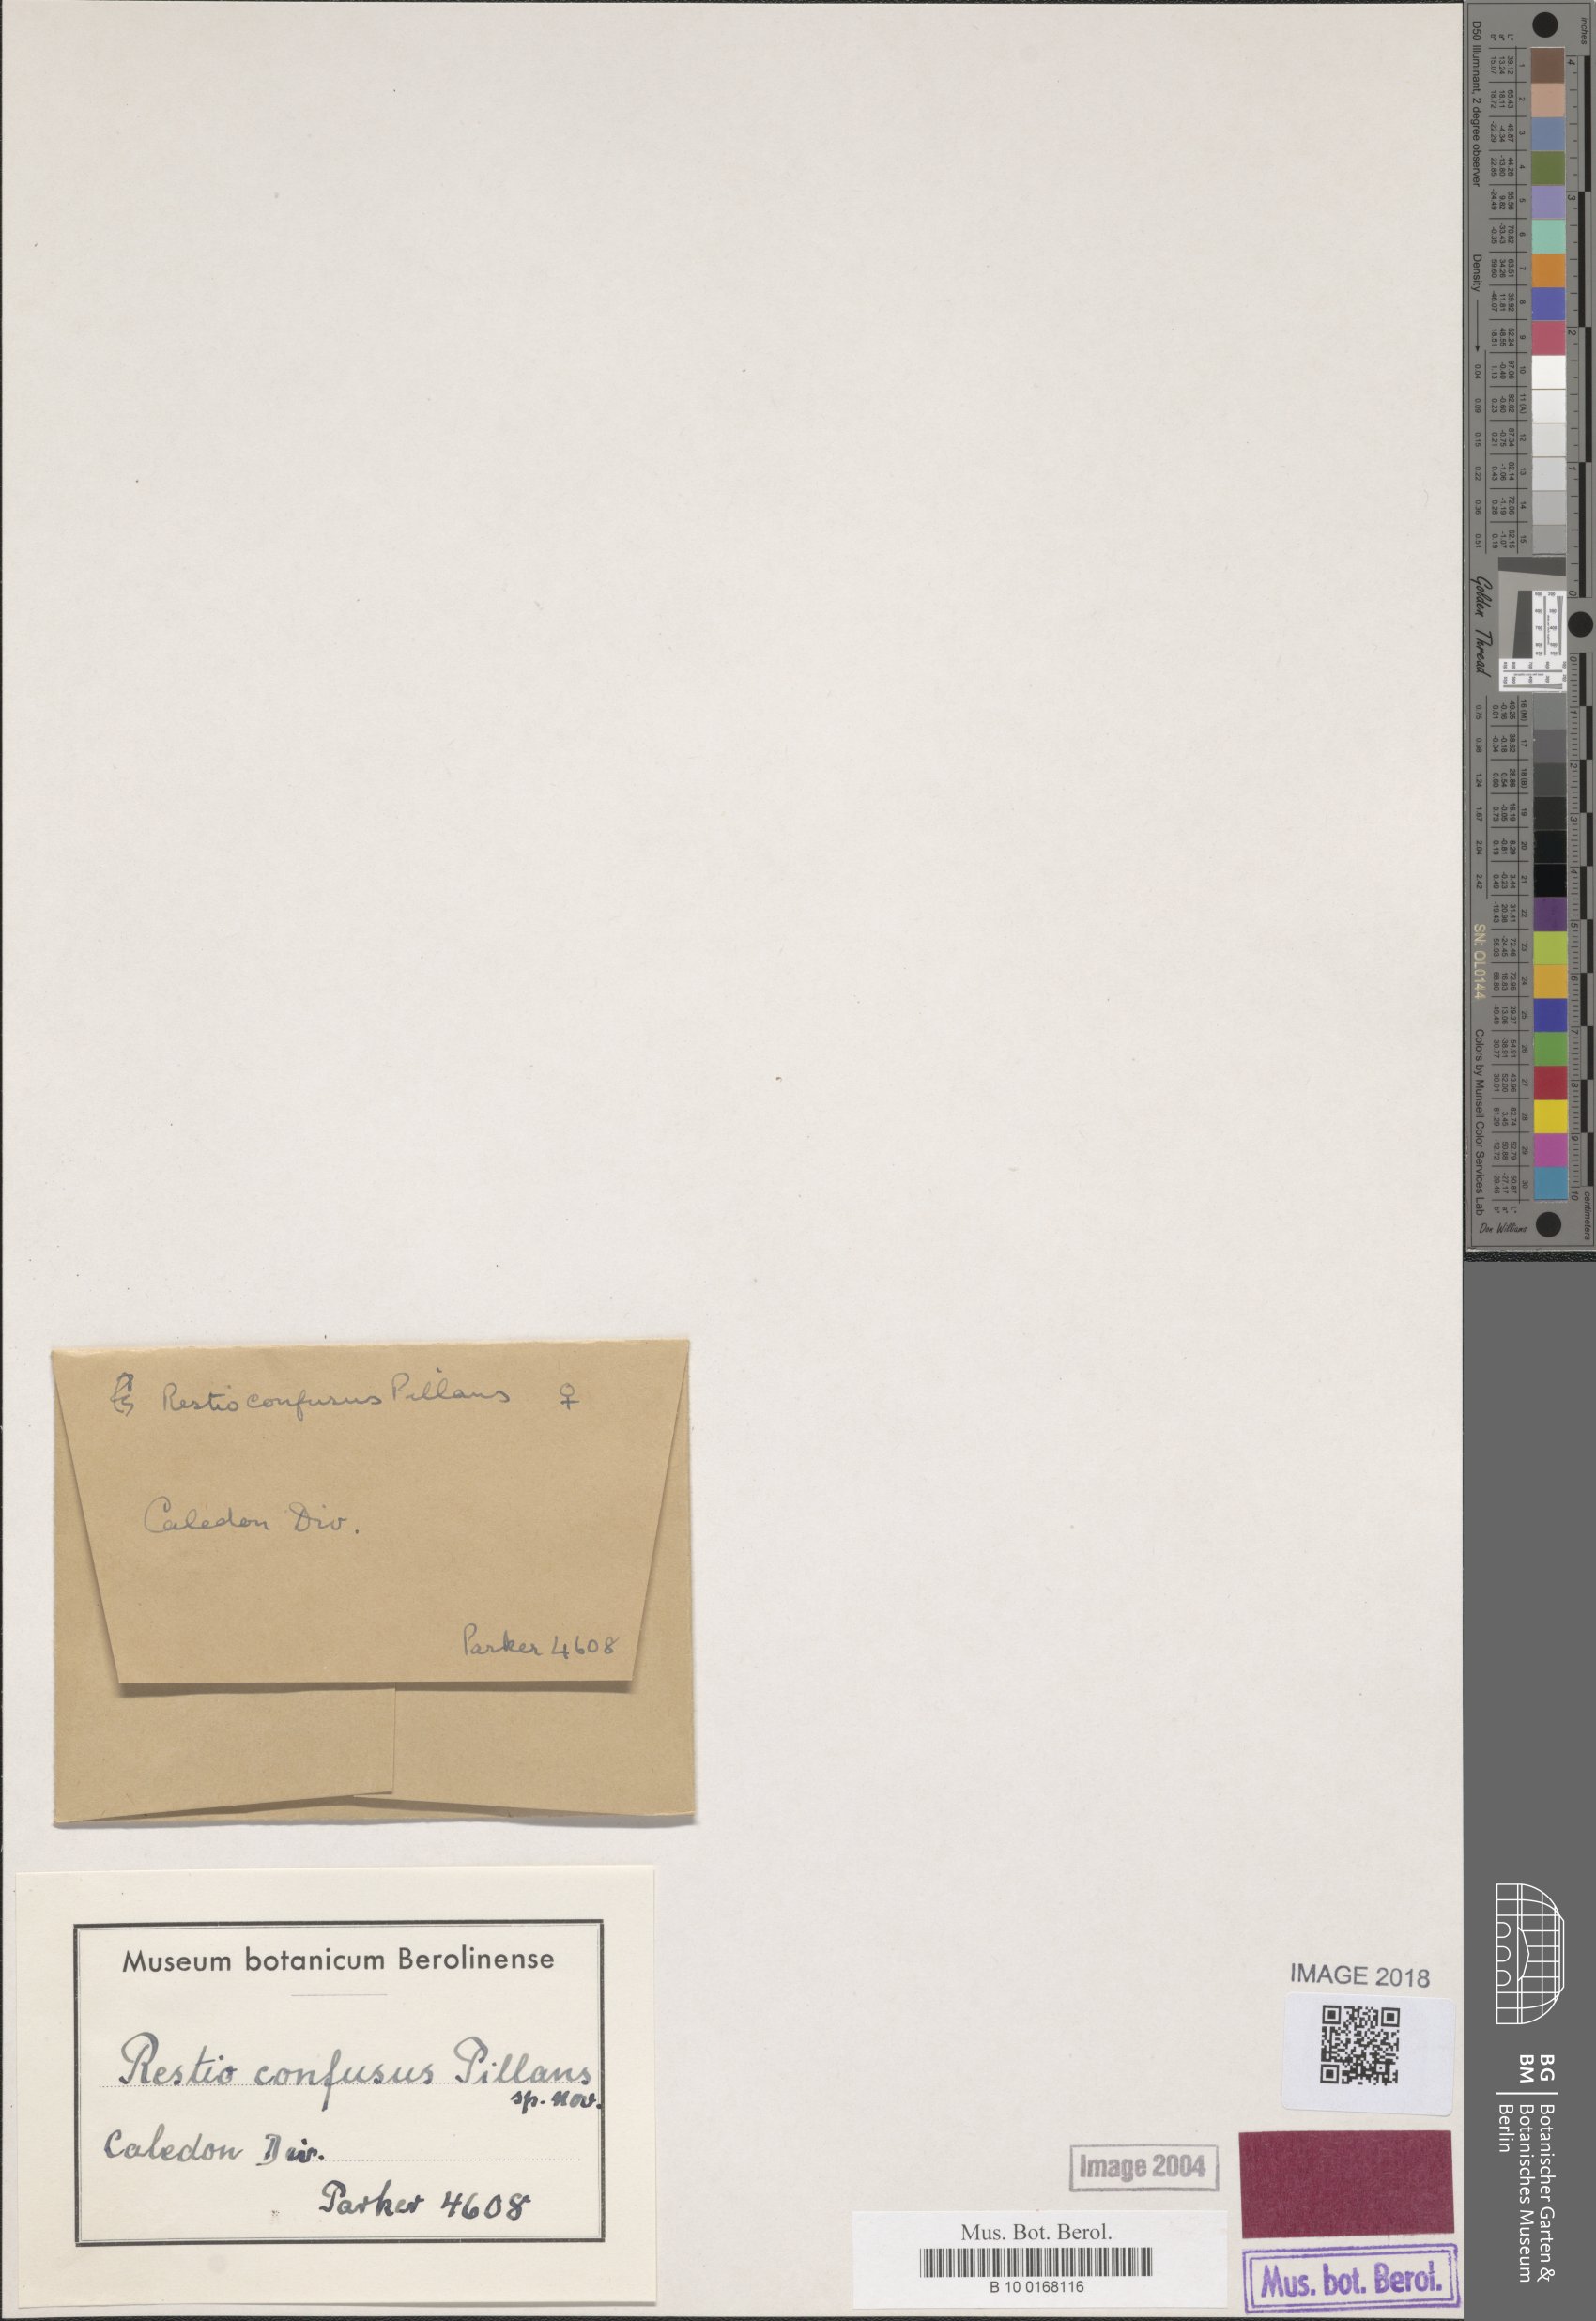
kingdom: Plantae
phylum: Tracheophyta
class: Liliopsida
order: Poales
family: Restionaceae
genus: Restio
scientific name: Restio confusus
